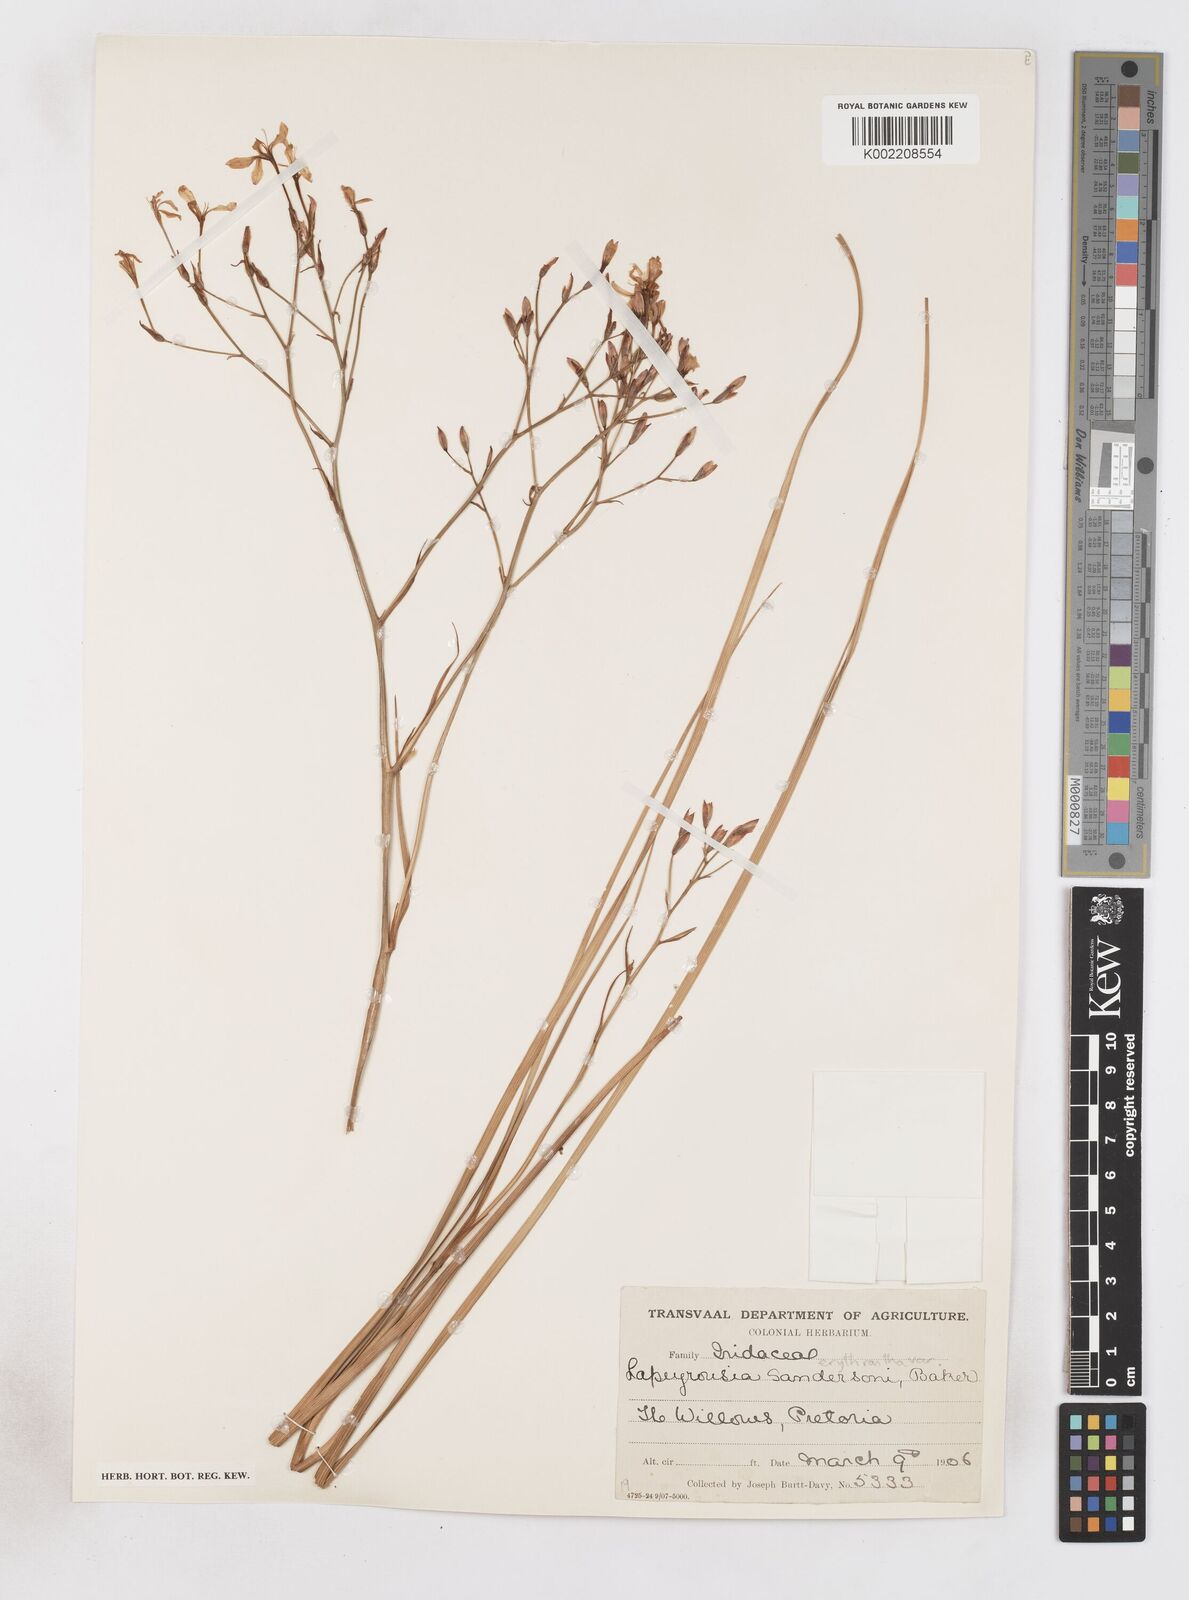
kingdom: Plantae
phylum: Tracheophyta
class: Liliopsida
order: Asparagales
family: Iridaceae
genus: Afrosolen
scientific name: Afrosolen sandersonii
